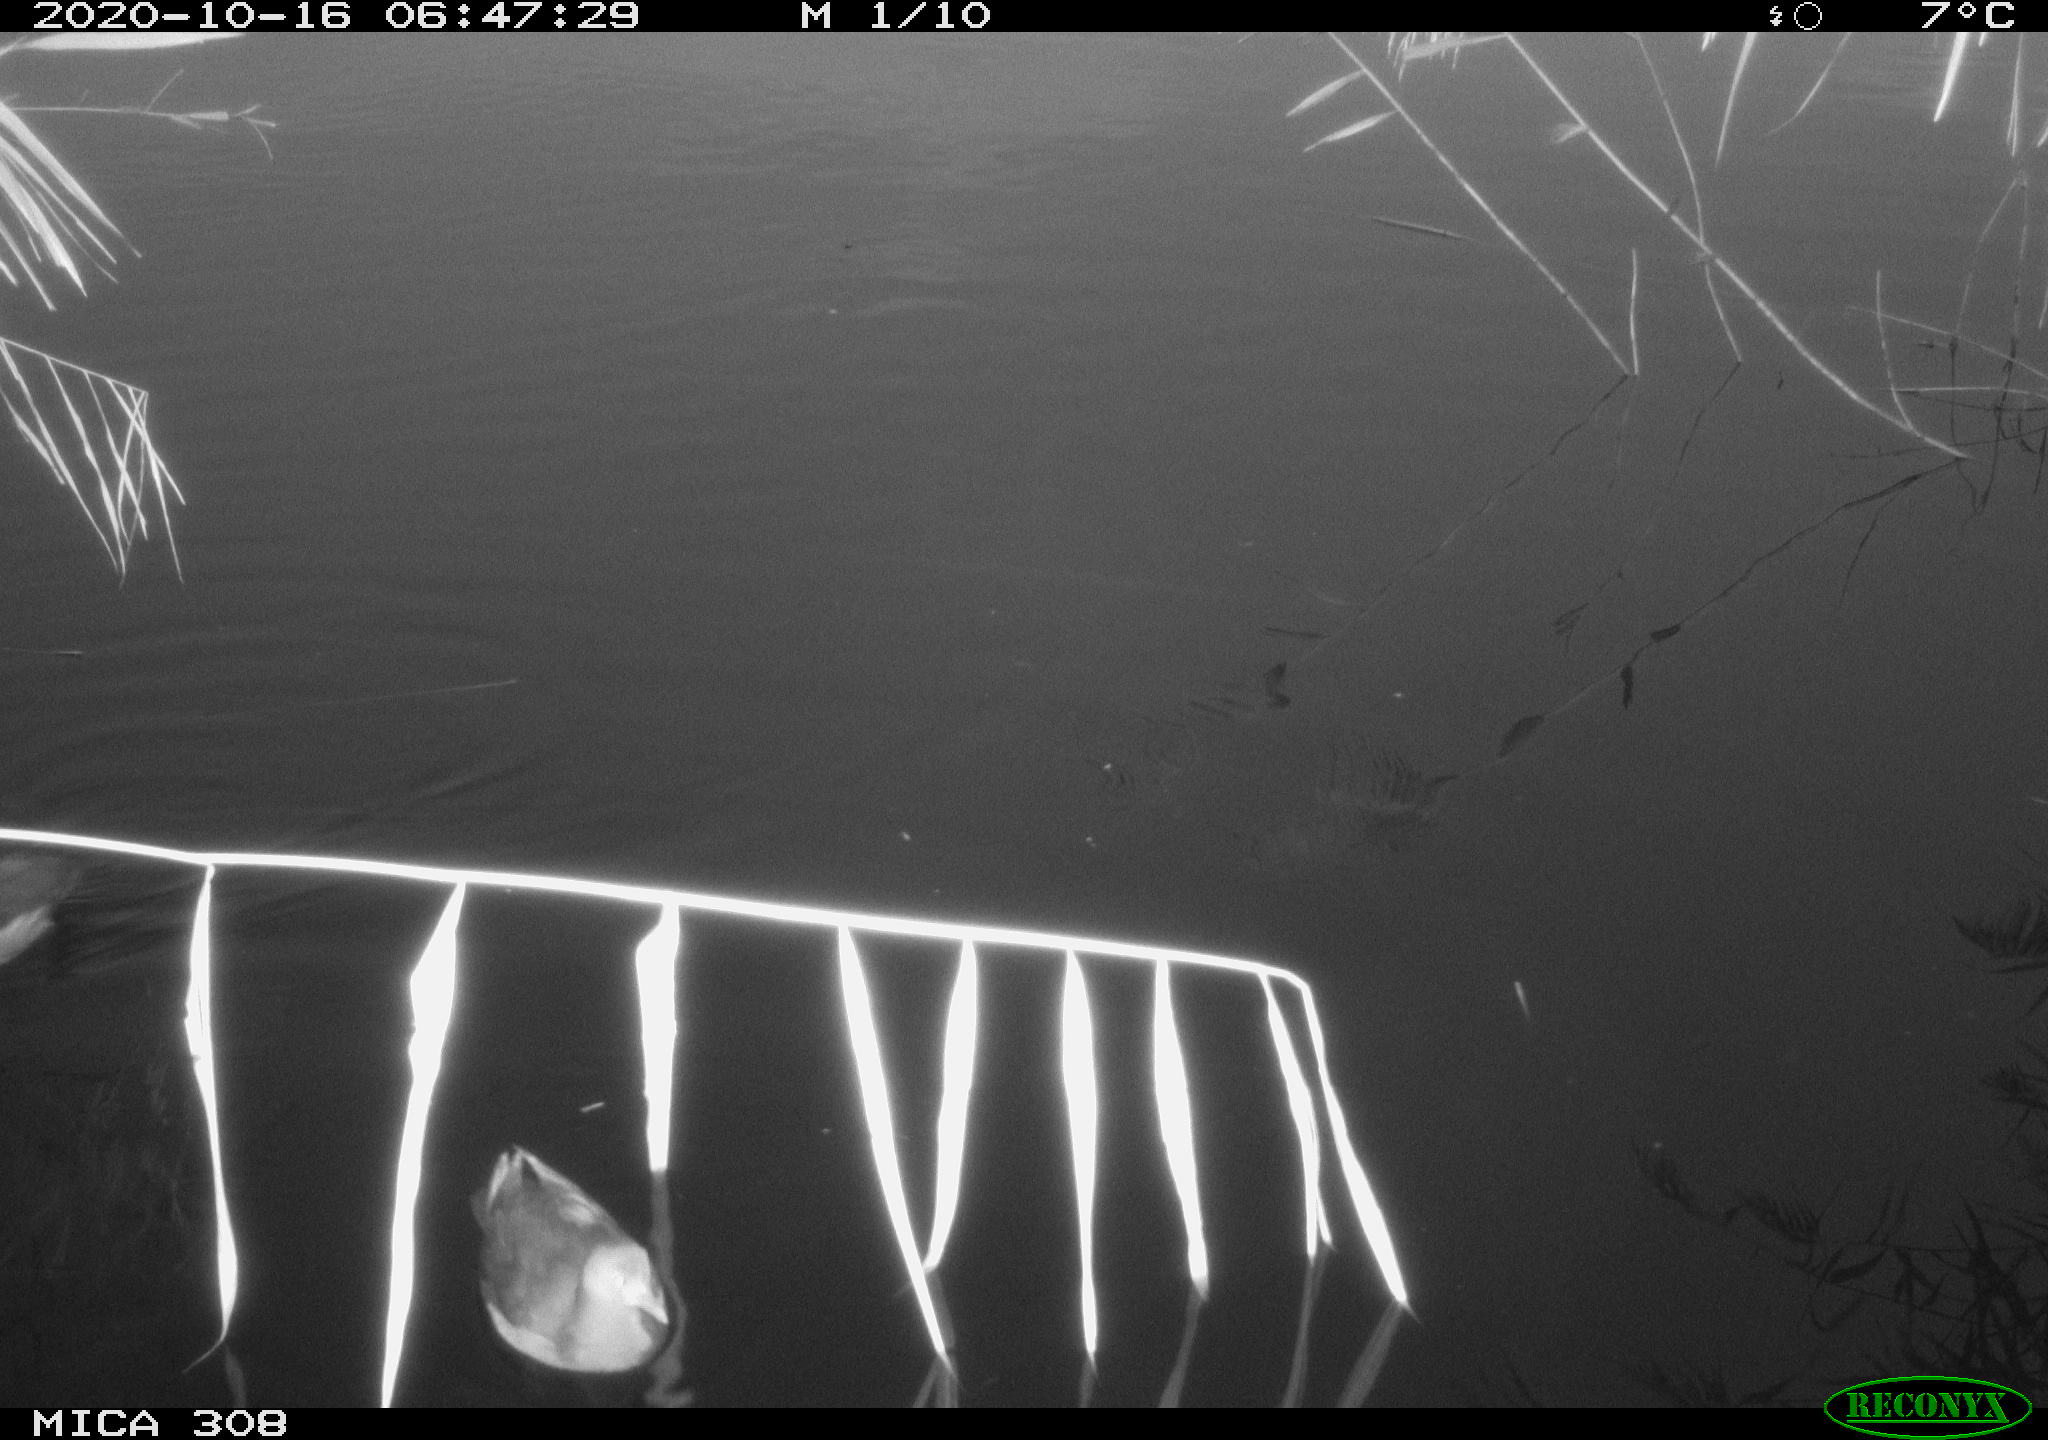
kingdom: Animalia
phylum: Chordata
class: Aves
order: Gruiformes
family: Rallidae
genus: Gallinula
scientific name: Gallinula chloropus
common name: Common moorhen
